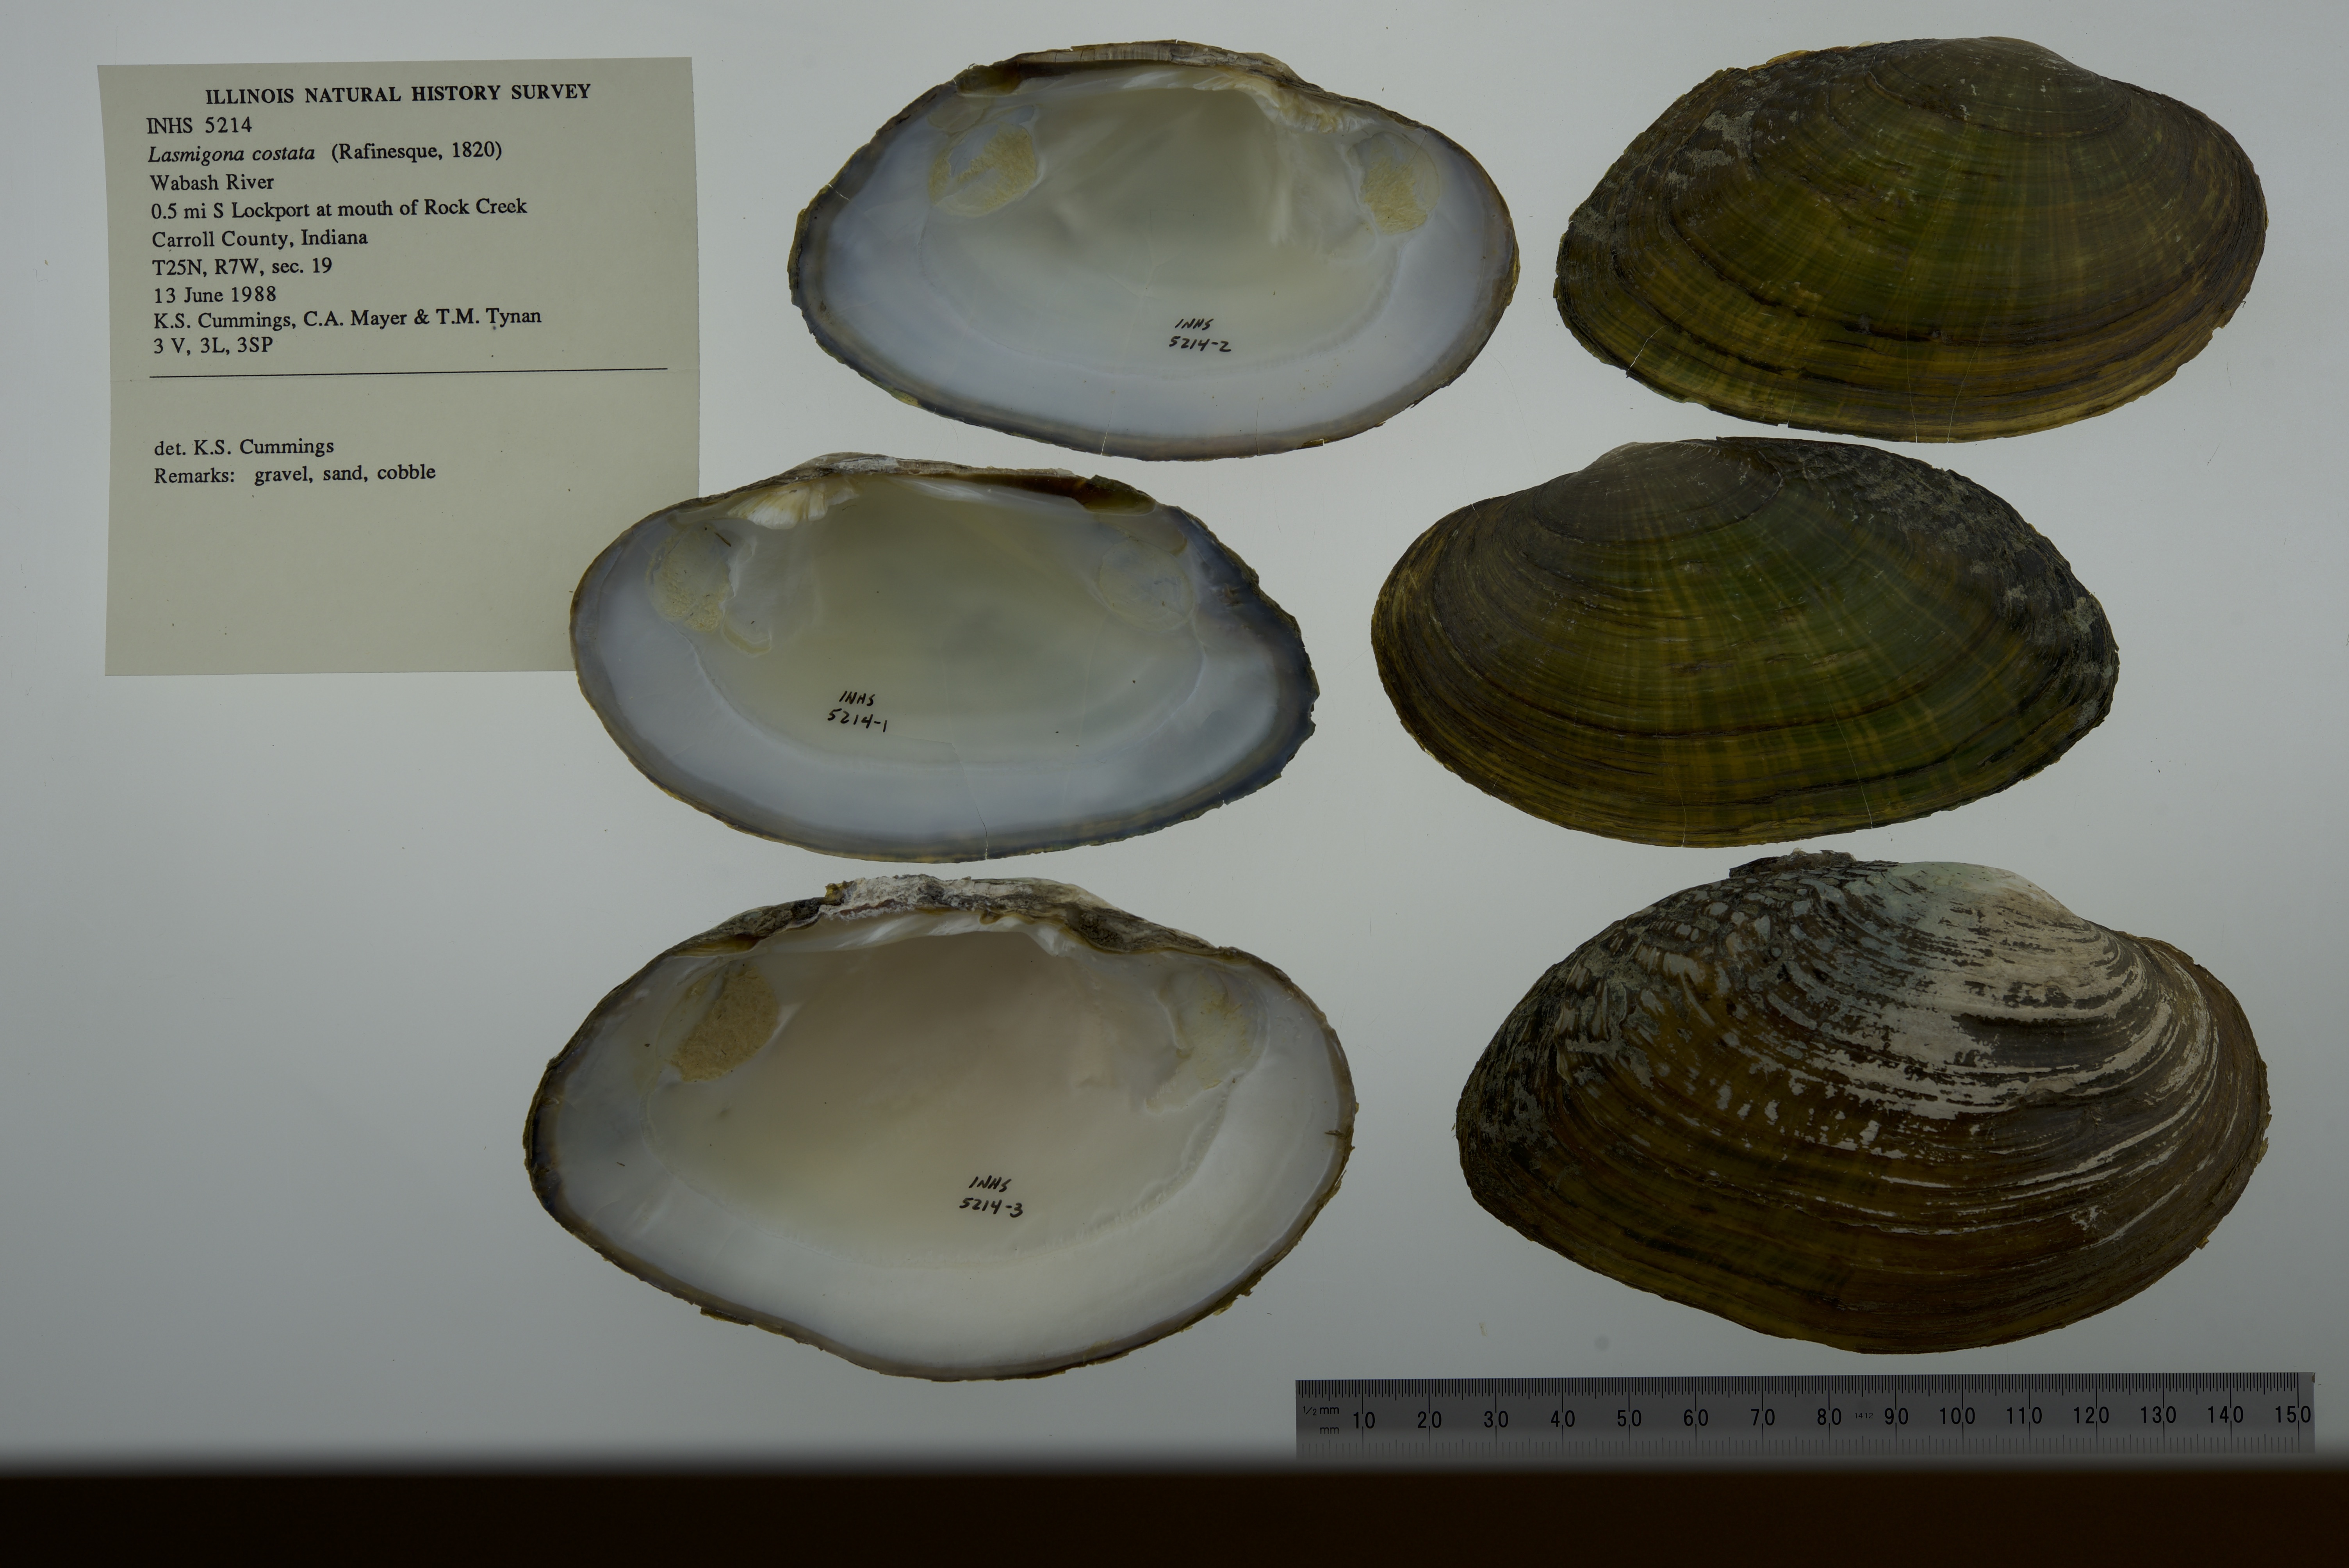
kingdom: Animalia
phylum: Mollusca
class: Bivalvia
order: Unionida
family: Unionidae
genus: Lasmigona
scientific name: Lasmigona costata
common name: Flutedshell
